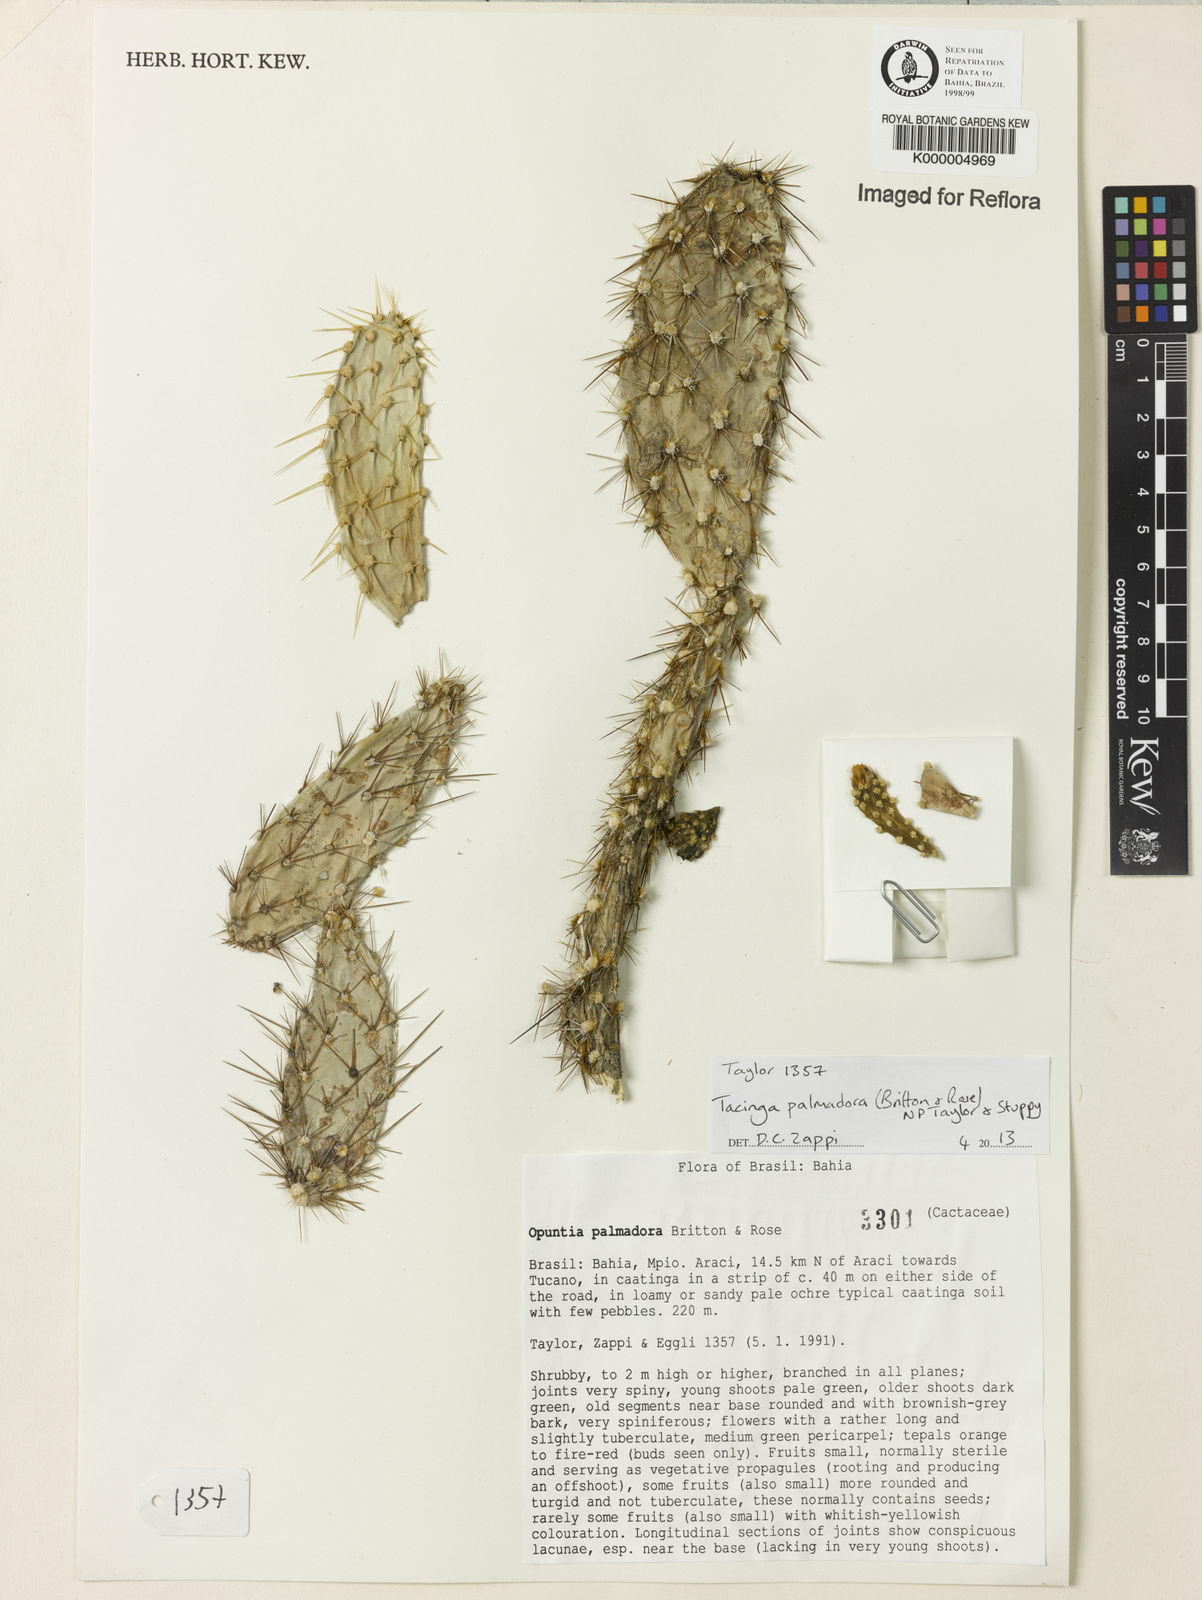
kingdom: Plantae
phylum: Tracheophyta
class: Magnoliopsida
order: Caryophyllales
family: Cactaceae
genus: Tacinga
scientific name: Tacinga palmadora
